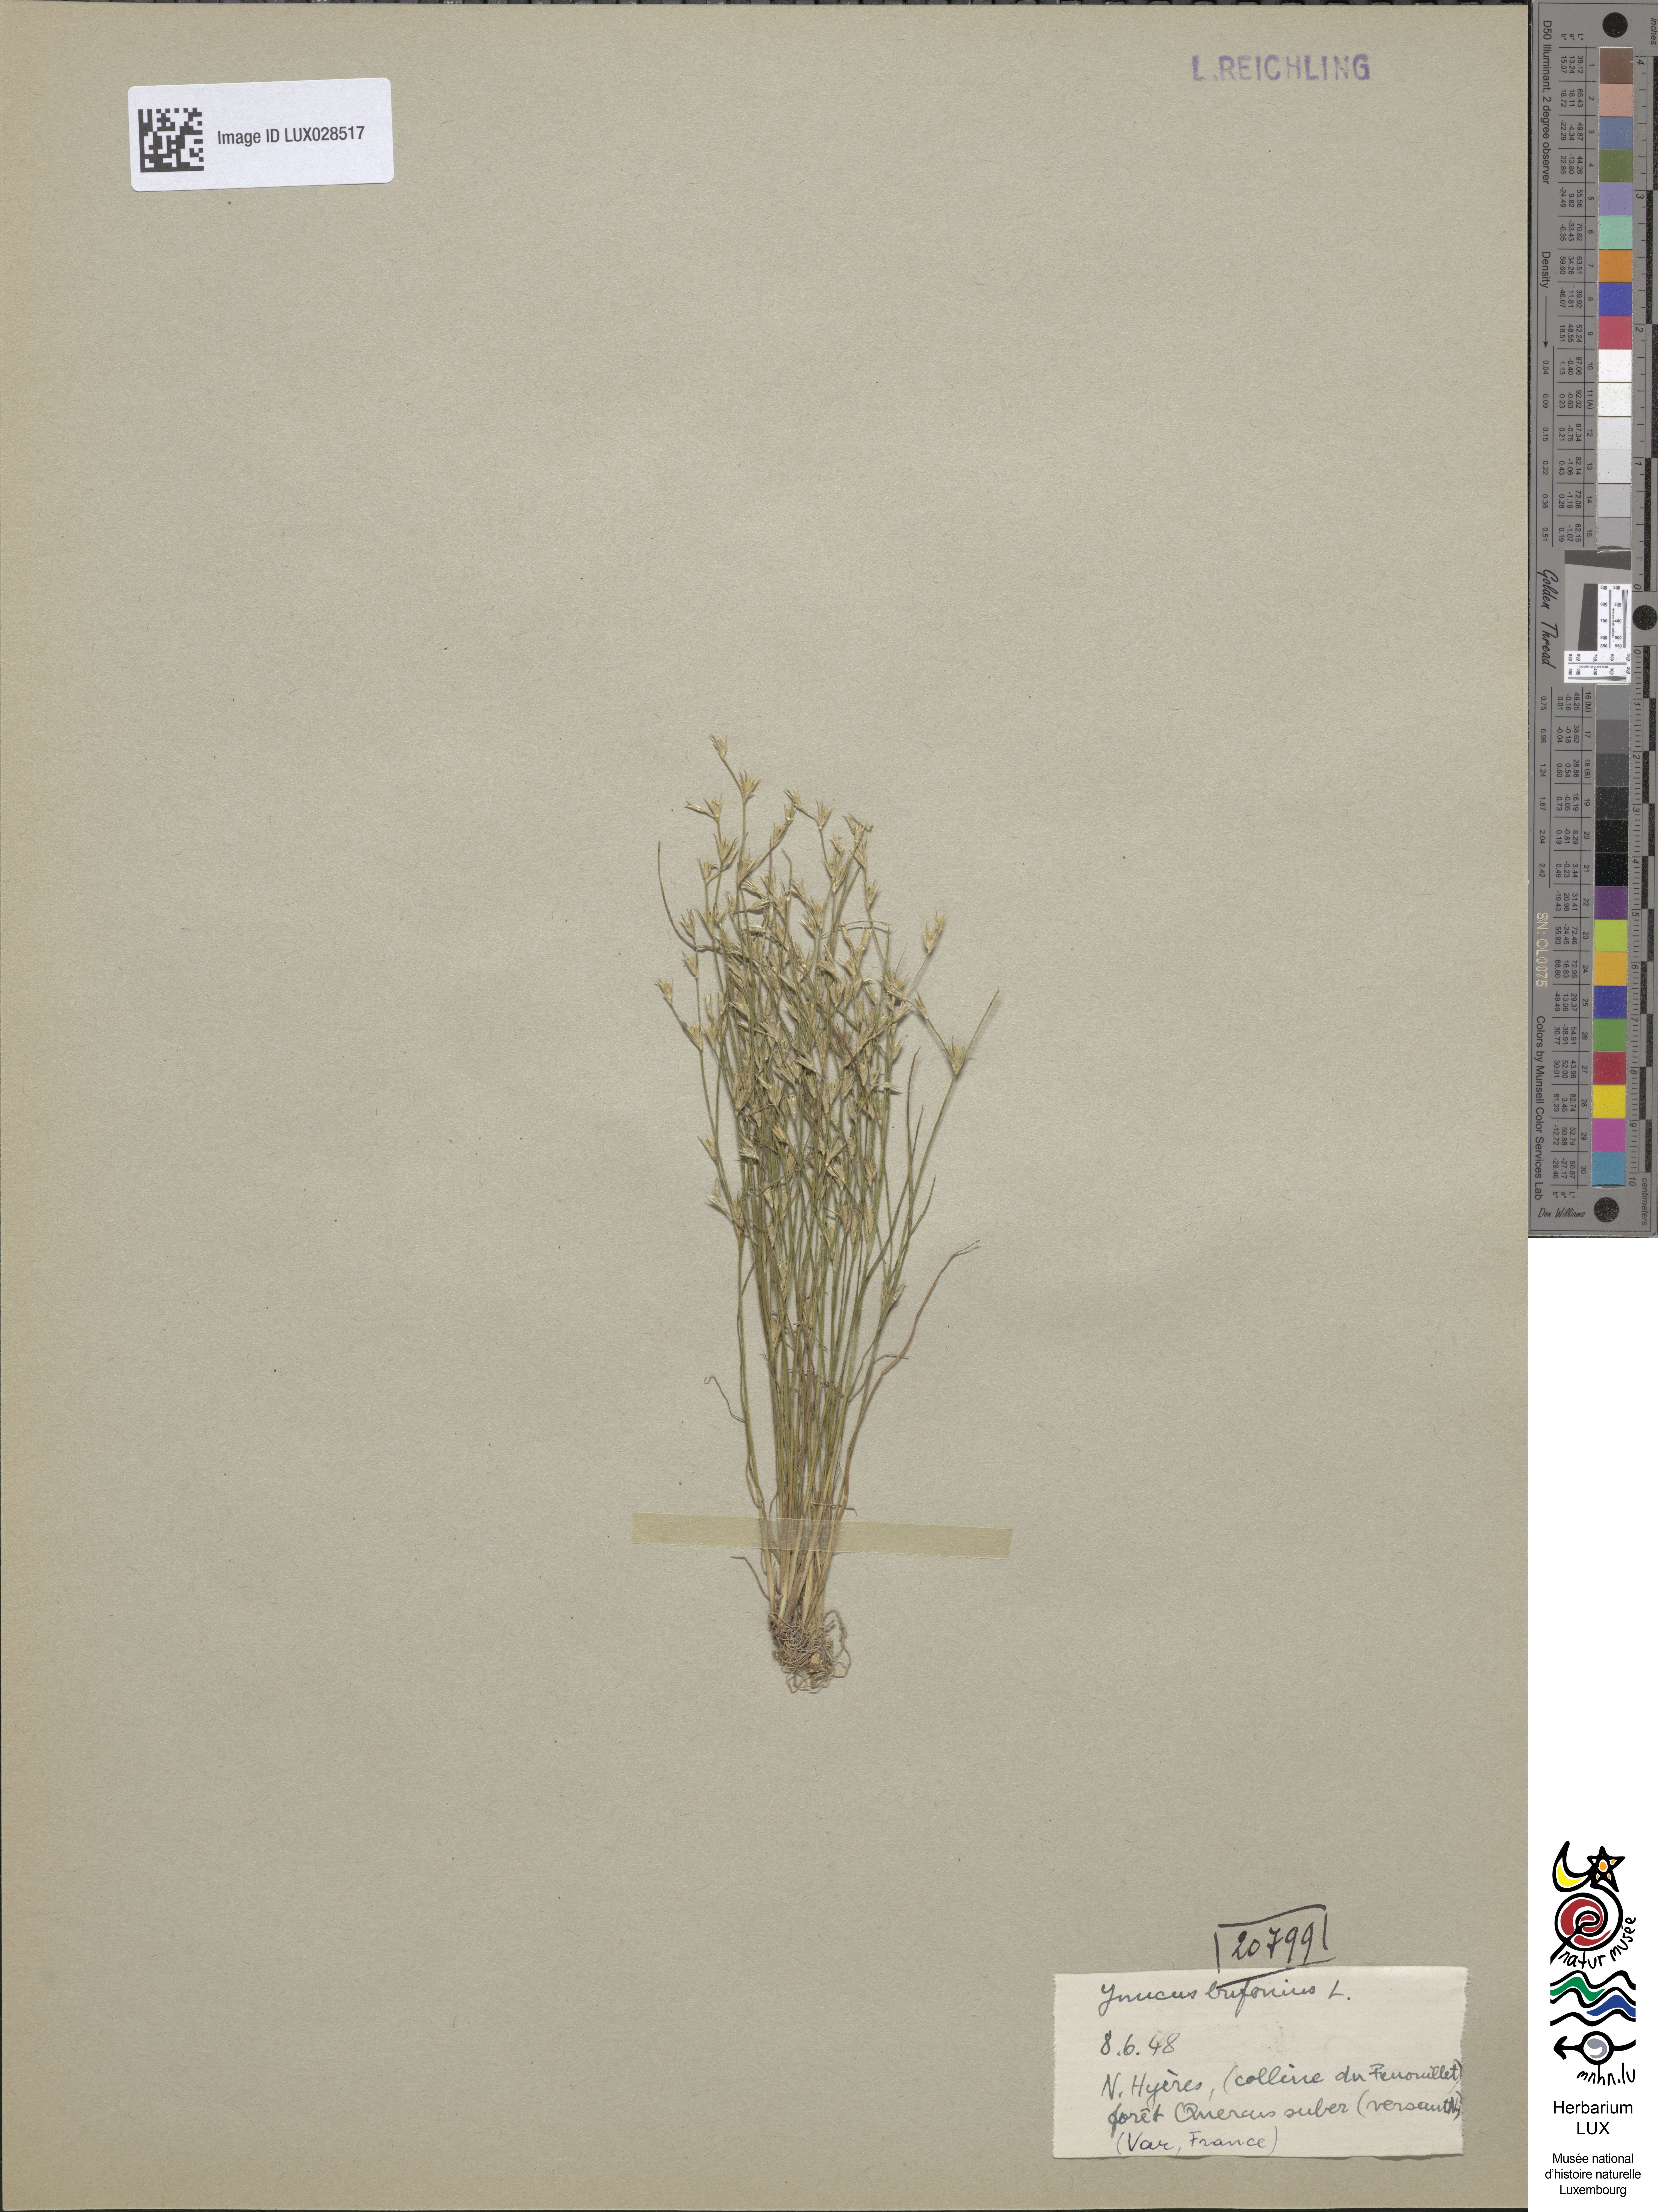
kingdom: Plantae
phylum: Tracheophyta
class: Liliopsida
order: Poales
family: Juncaceae
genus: Juncus
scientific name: Juncus bufonius
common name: Toad rush
